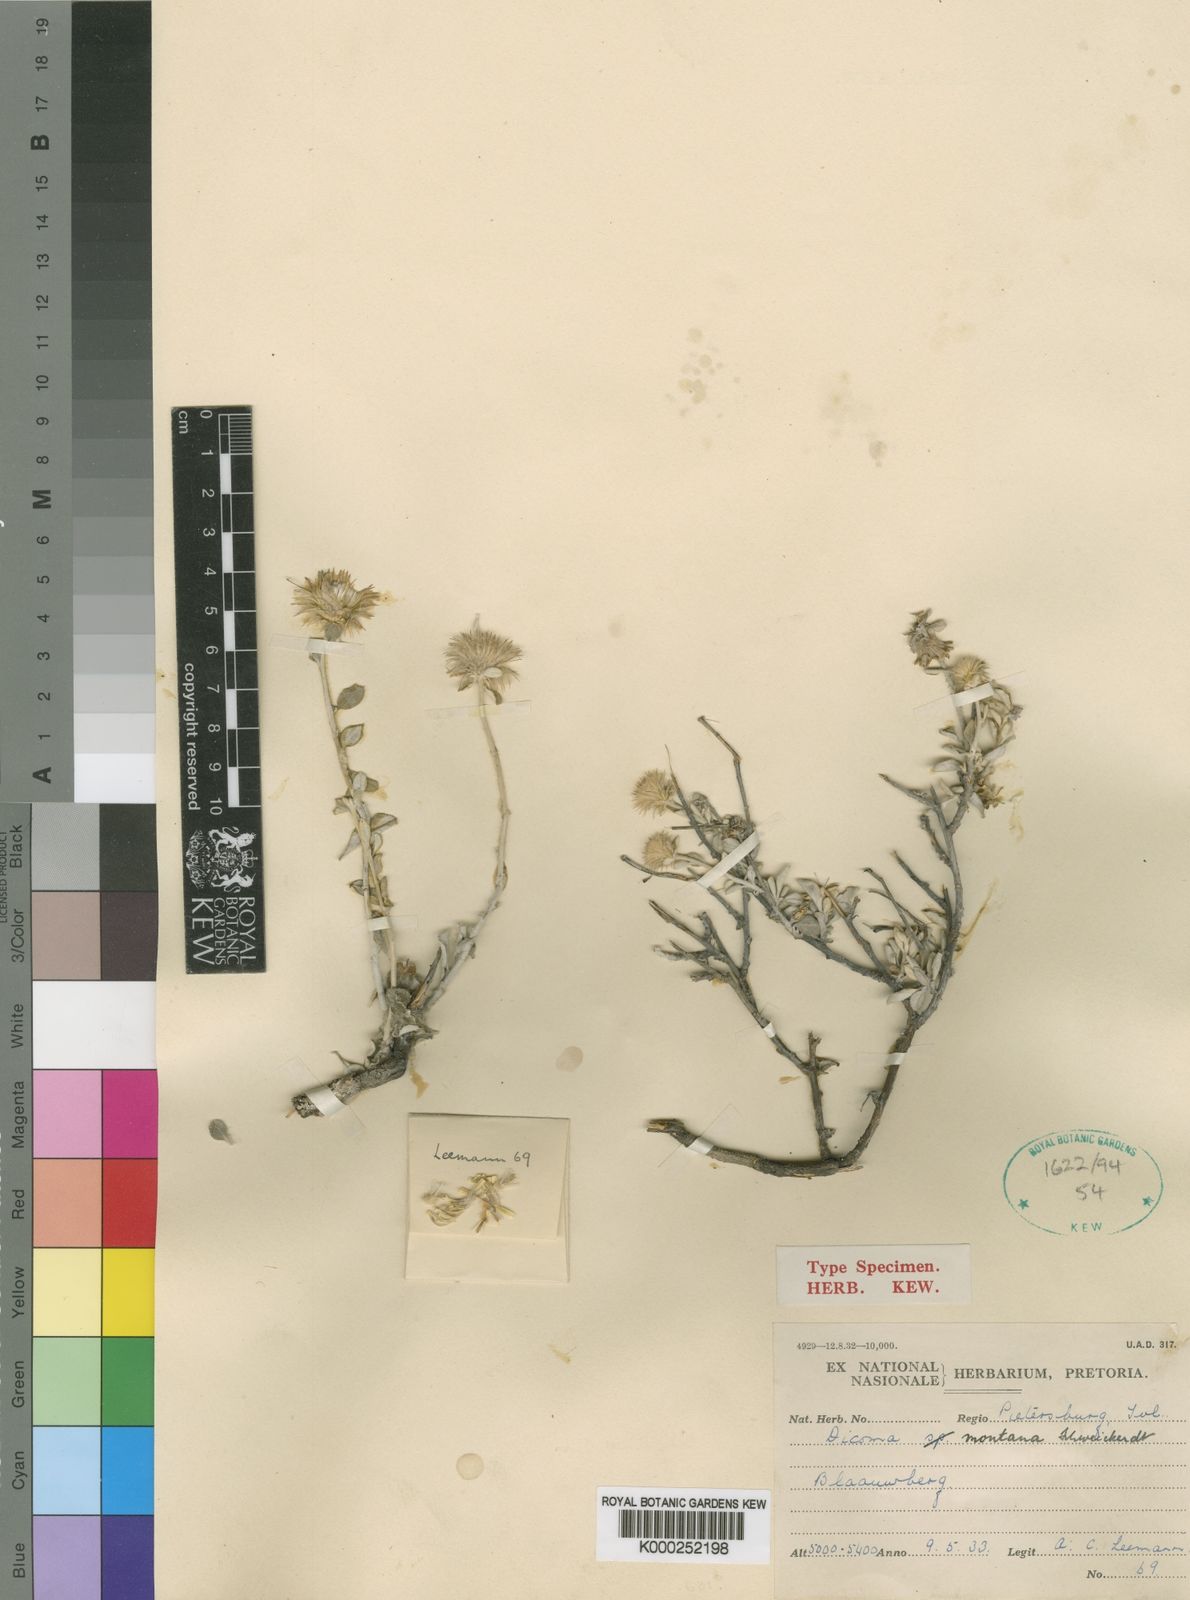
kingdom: Plantae
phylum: Tracheophyta
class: Magnoliopsida
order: Asterales
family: Asteraceae
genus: Dicoma
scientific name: Dicoma montana
